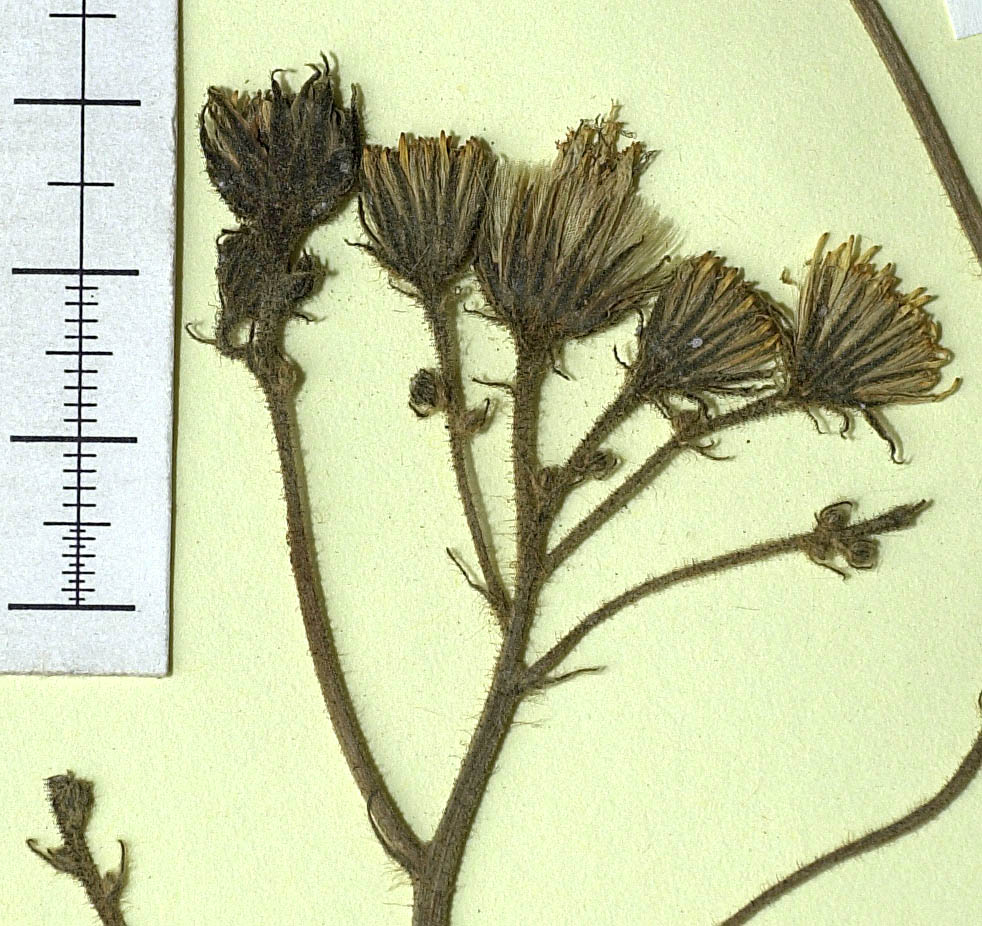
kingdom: Plantae
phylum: Tracheophyta
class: Magnoliopsida
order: Asterales
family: Asteraceae
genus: Hieracium
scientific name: Hieracium lachenalii
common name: Common hawkweed
